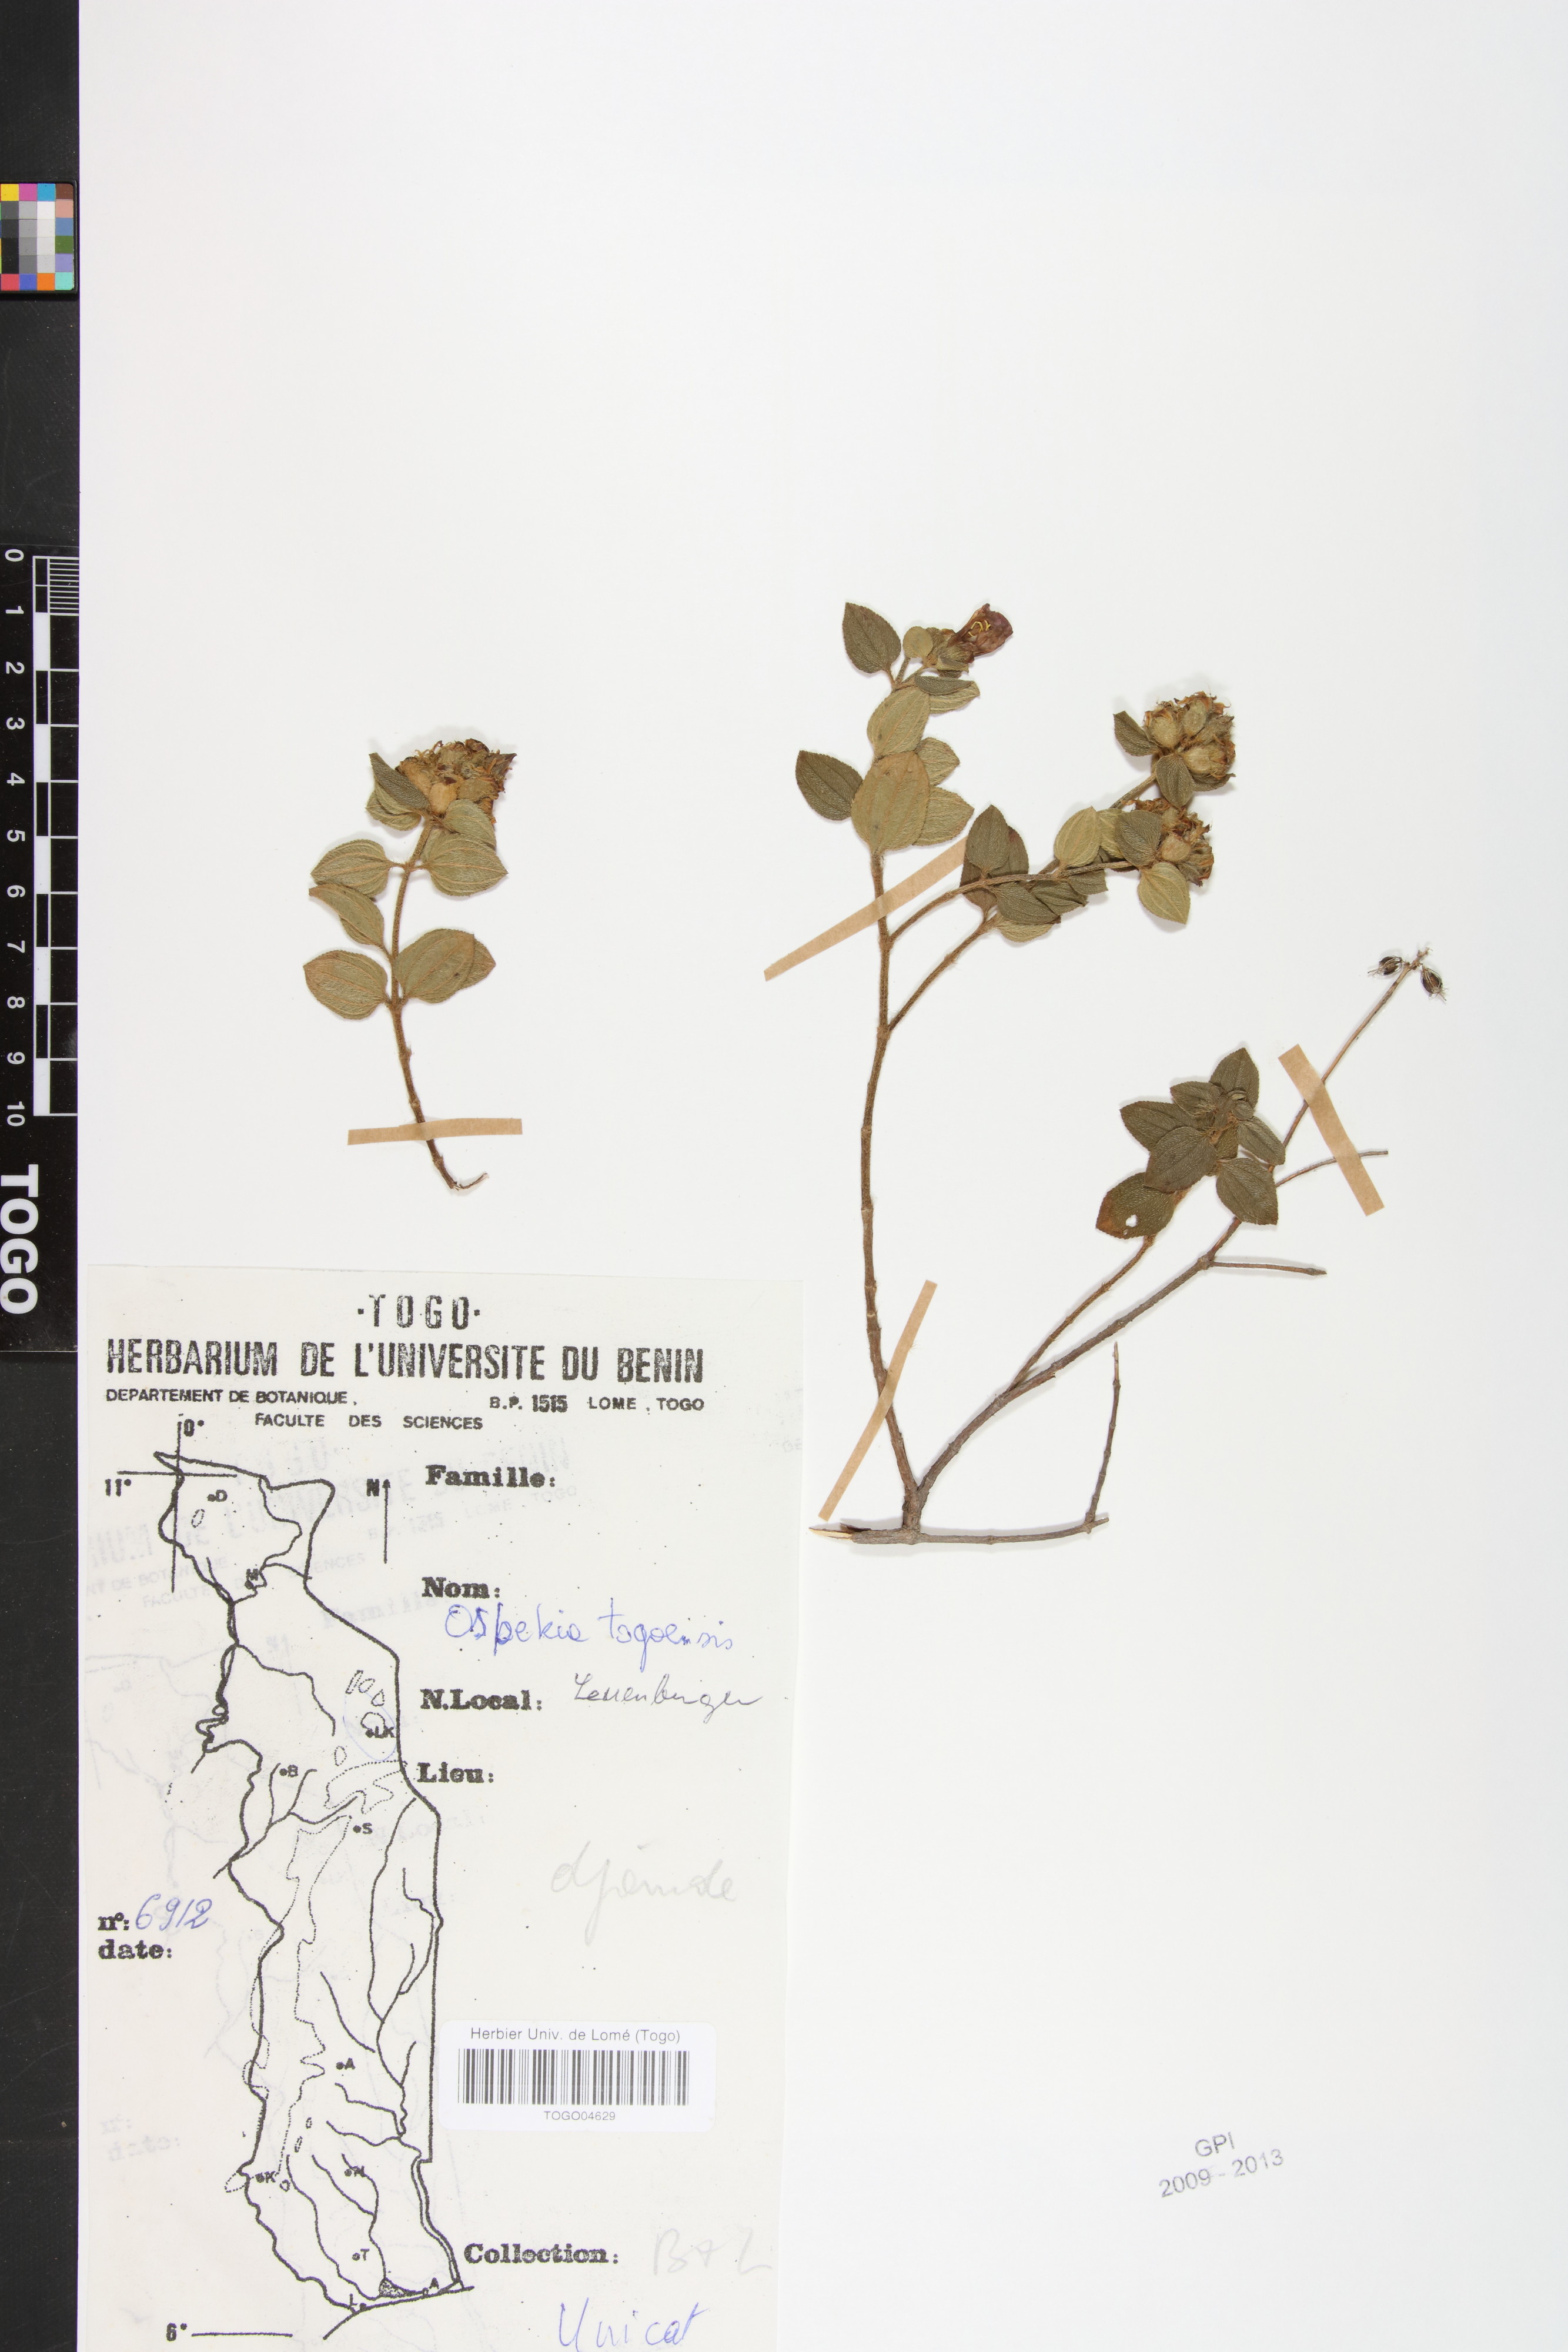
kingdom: Plantae
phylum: Tracheophyta
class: Magnoliopsida
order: Myrtales
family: Melastomataceae
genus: Nerophila
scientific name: Nerophila togoensis
